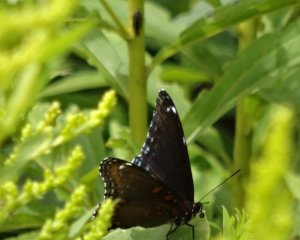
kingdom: Animalia
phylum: Arthropoda
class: Insecta
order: Lepidoptera
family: Nymphalidae
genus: Limenitis
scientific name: Limenitis astyanax
